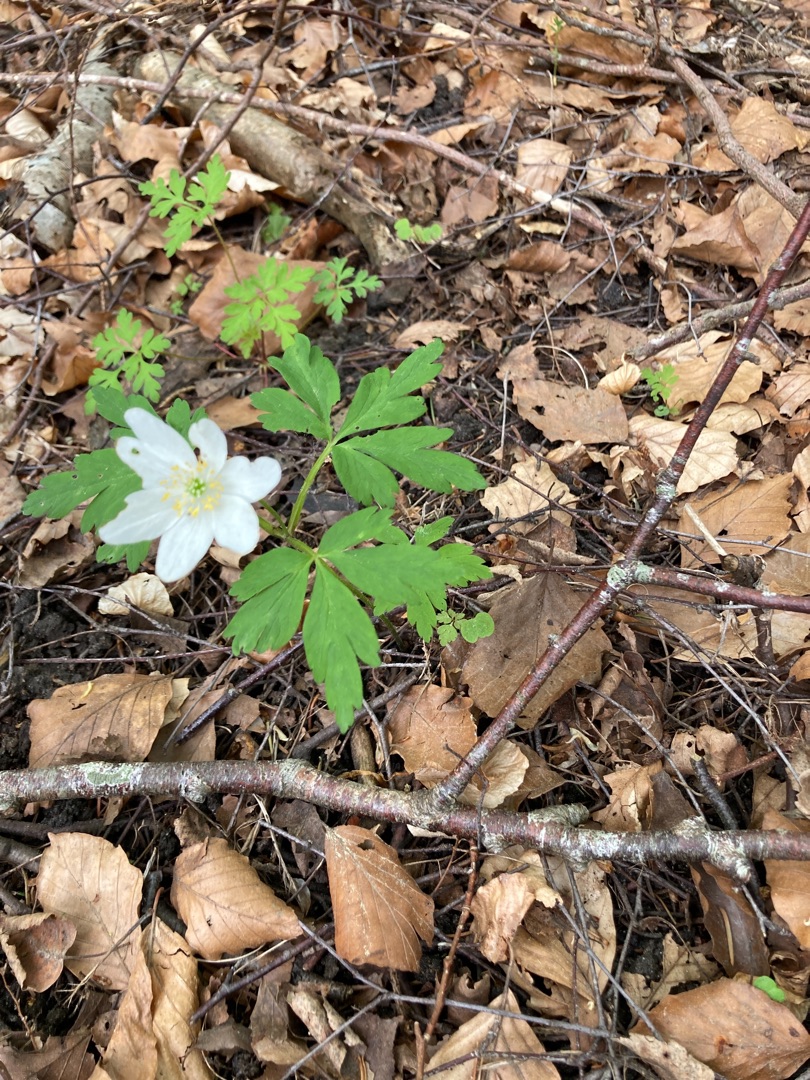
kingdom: Plantae
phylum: Tracheophyta
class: Magnoliopsida
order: Ranunculales
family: Ranunculaceae
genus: Anemone
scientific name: Anemone nemorosa
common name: Hvid anemone
